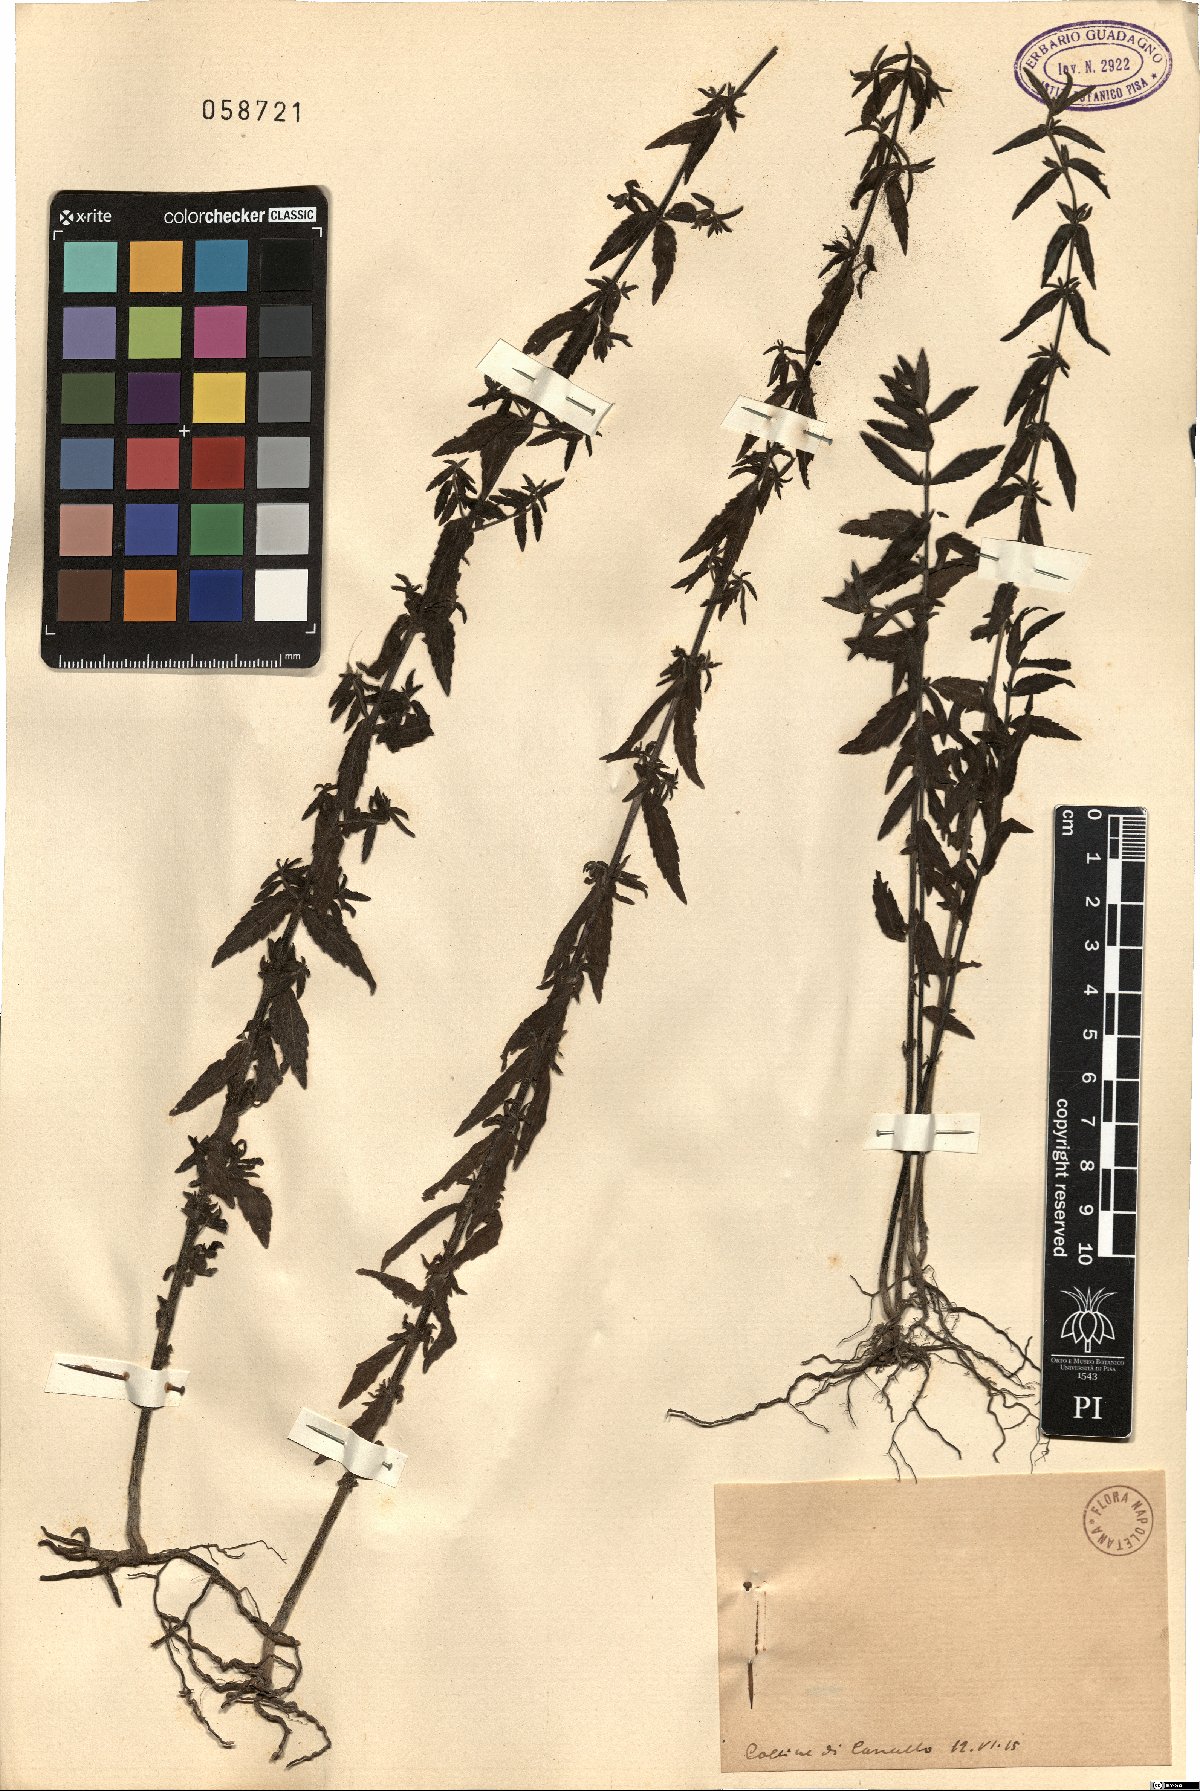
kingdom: Plantae
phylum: Tracheophyta
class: Magnoliopsida
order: Lamiales
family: Orobanchaceae
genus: Bartsia
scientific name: Bartsia
